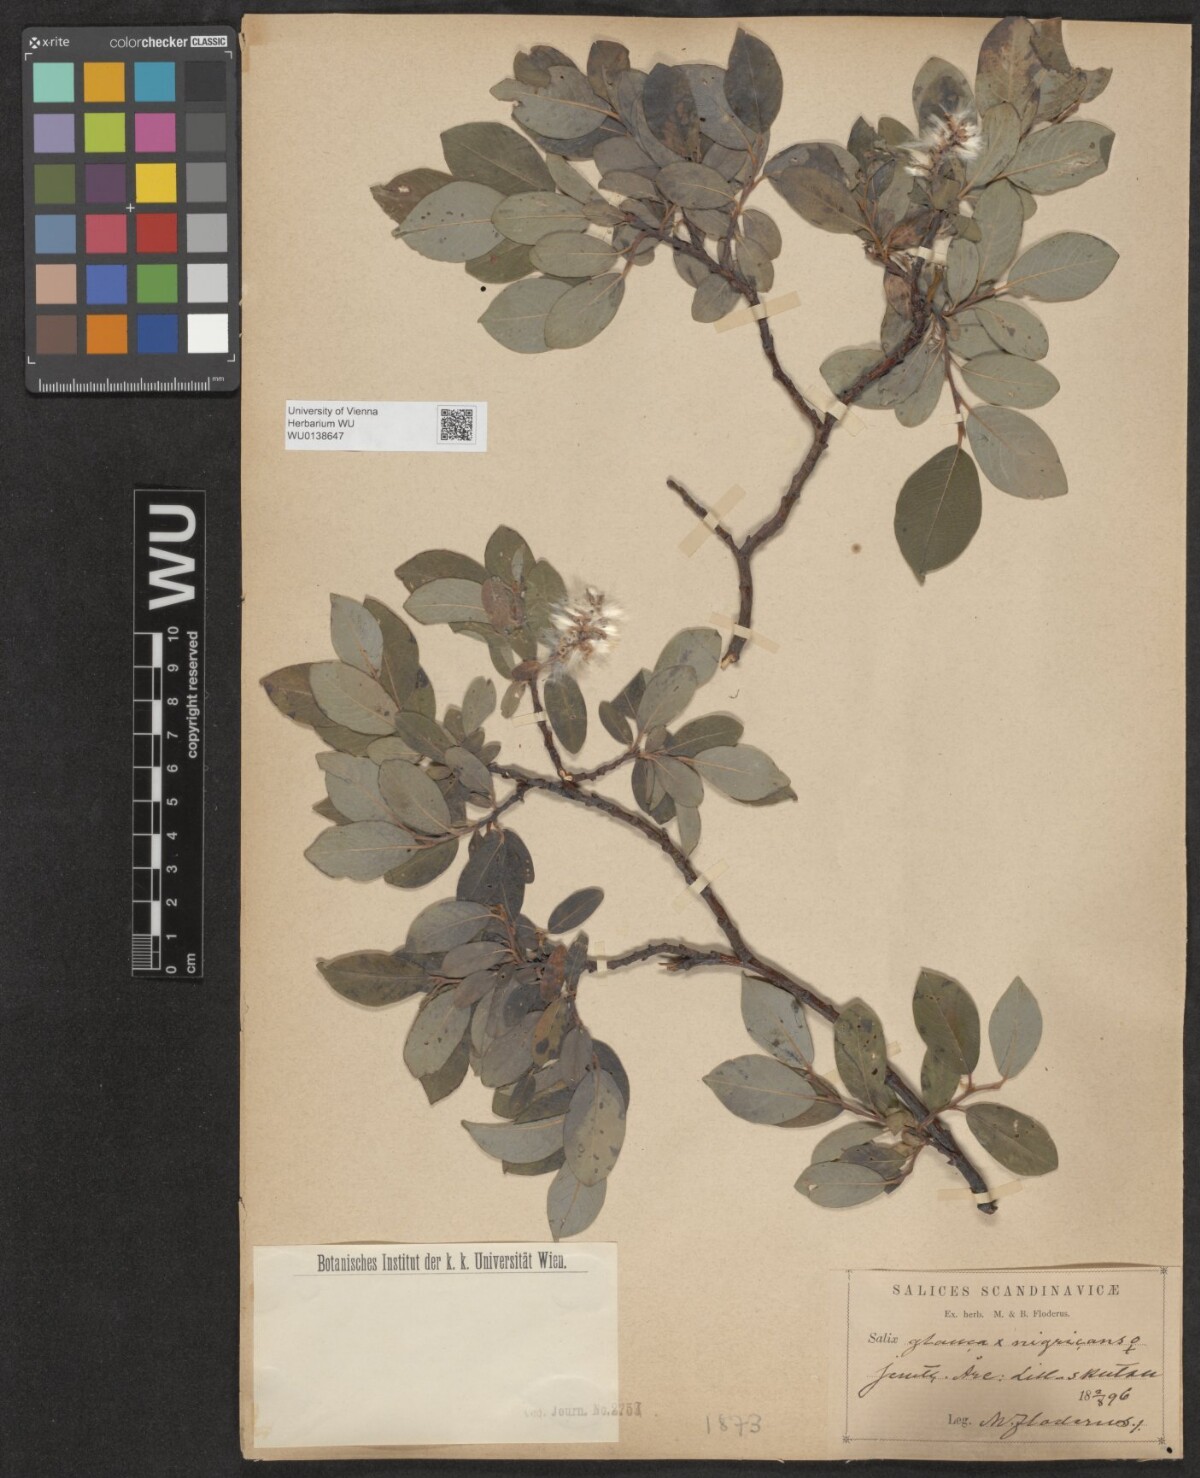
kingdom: Plantae
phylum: Tracheophyta
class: Magnoliopsida
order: Malpighiales
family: Salicaceae
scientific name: Salicaceae
